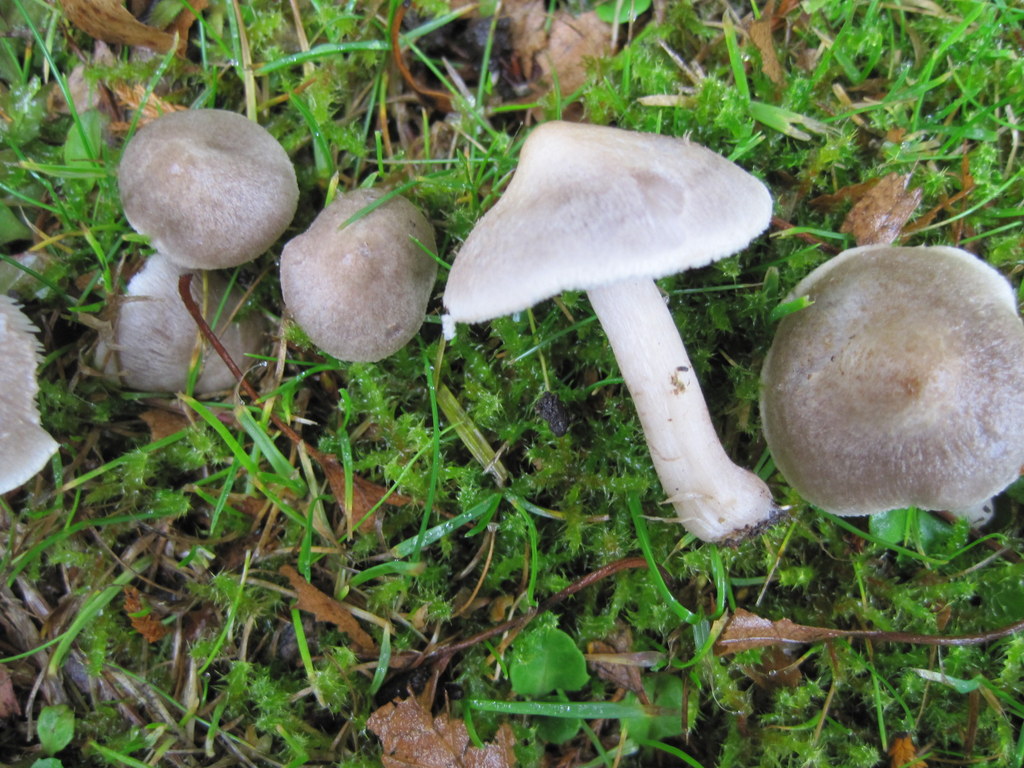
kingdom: Fungi
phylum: Basidiomycota
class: Agaricomycetes
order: Agaricales
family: Tricholomataceae
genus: Tricholoma
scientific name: Tricholoma argyraceum
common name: spids ridderhat
